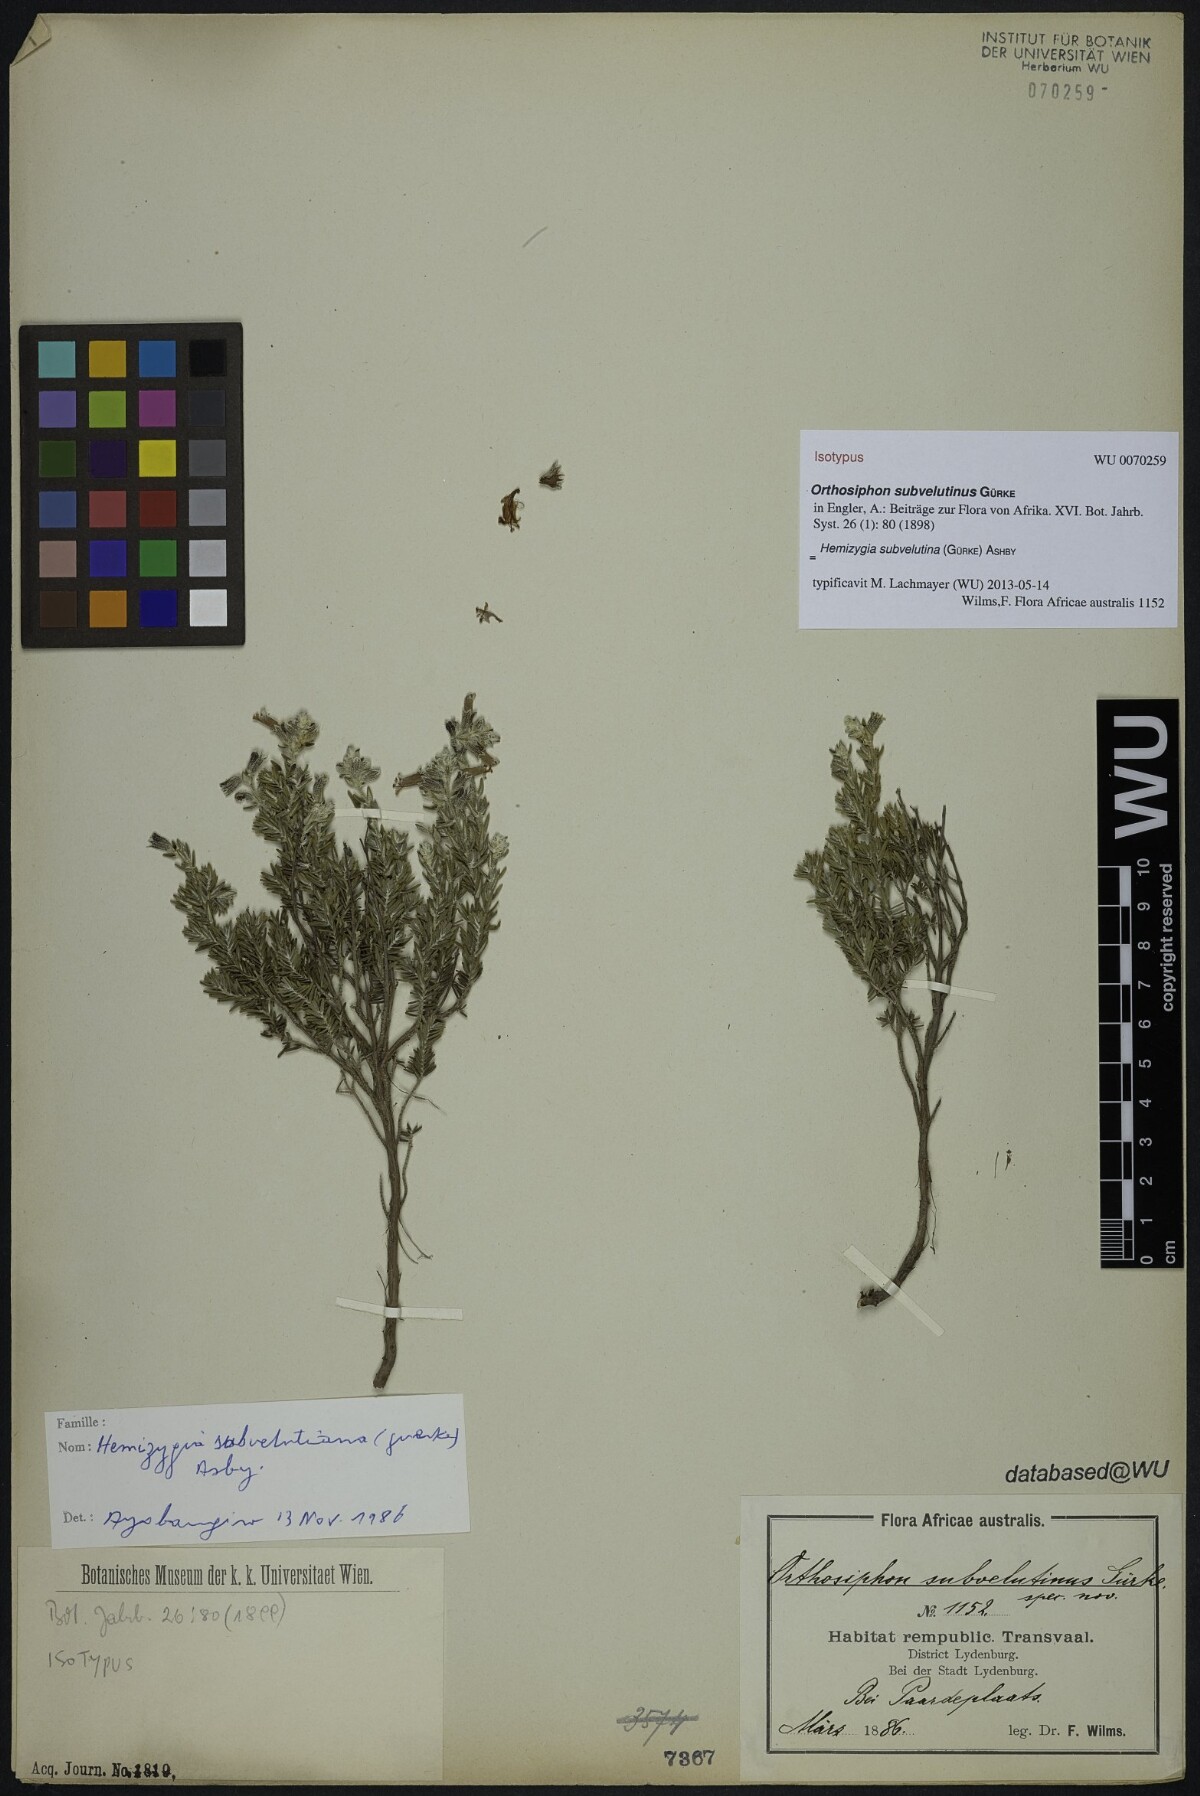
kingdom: Plantae
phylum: Tracheophyta
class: Magnoliopsida
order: Lamiales
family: Lamiaceae
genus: Syncolostemon
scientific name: Syncolostemon subvelutinus
